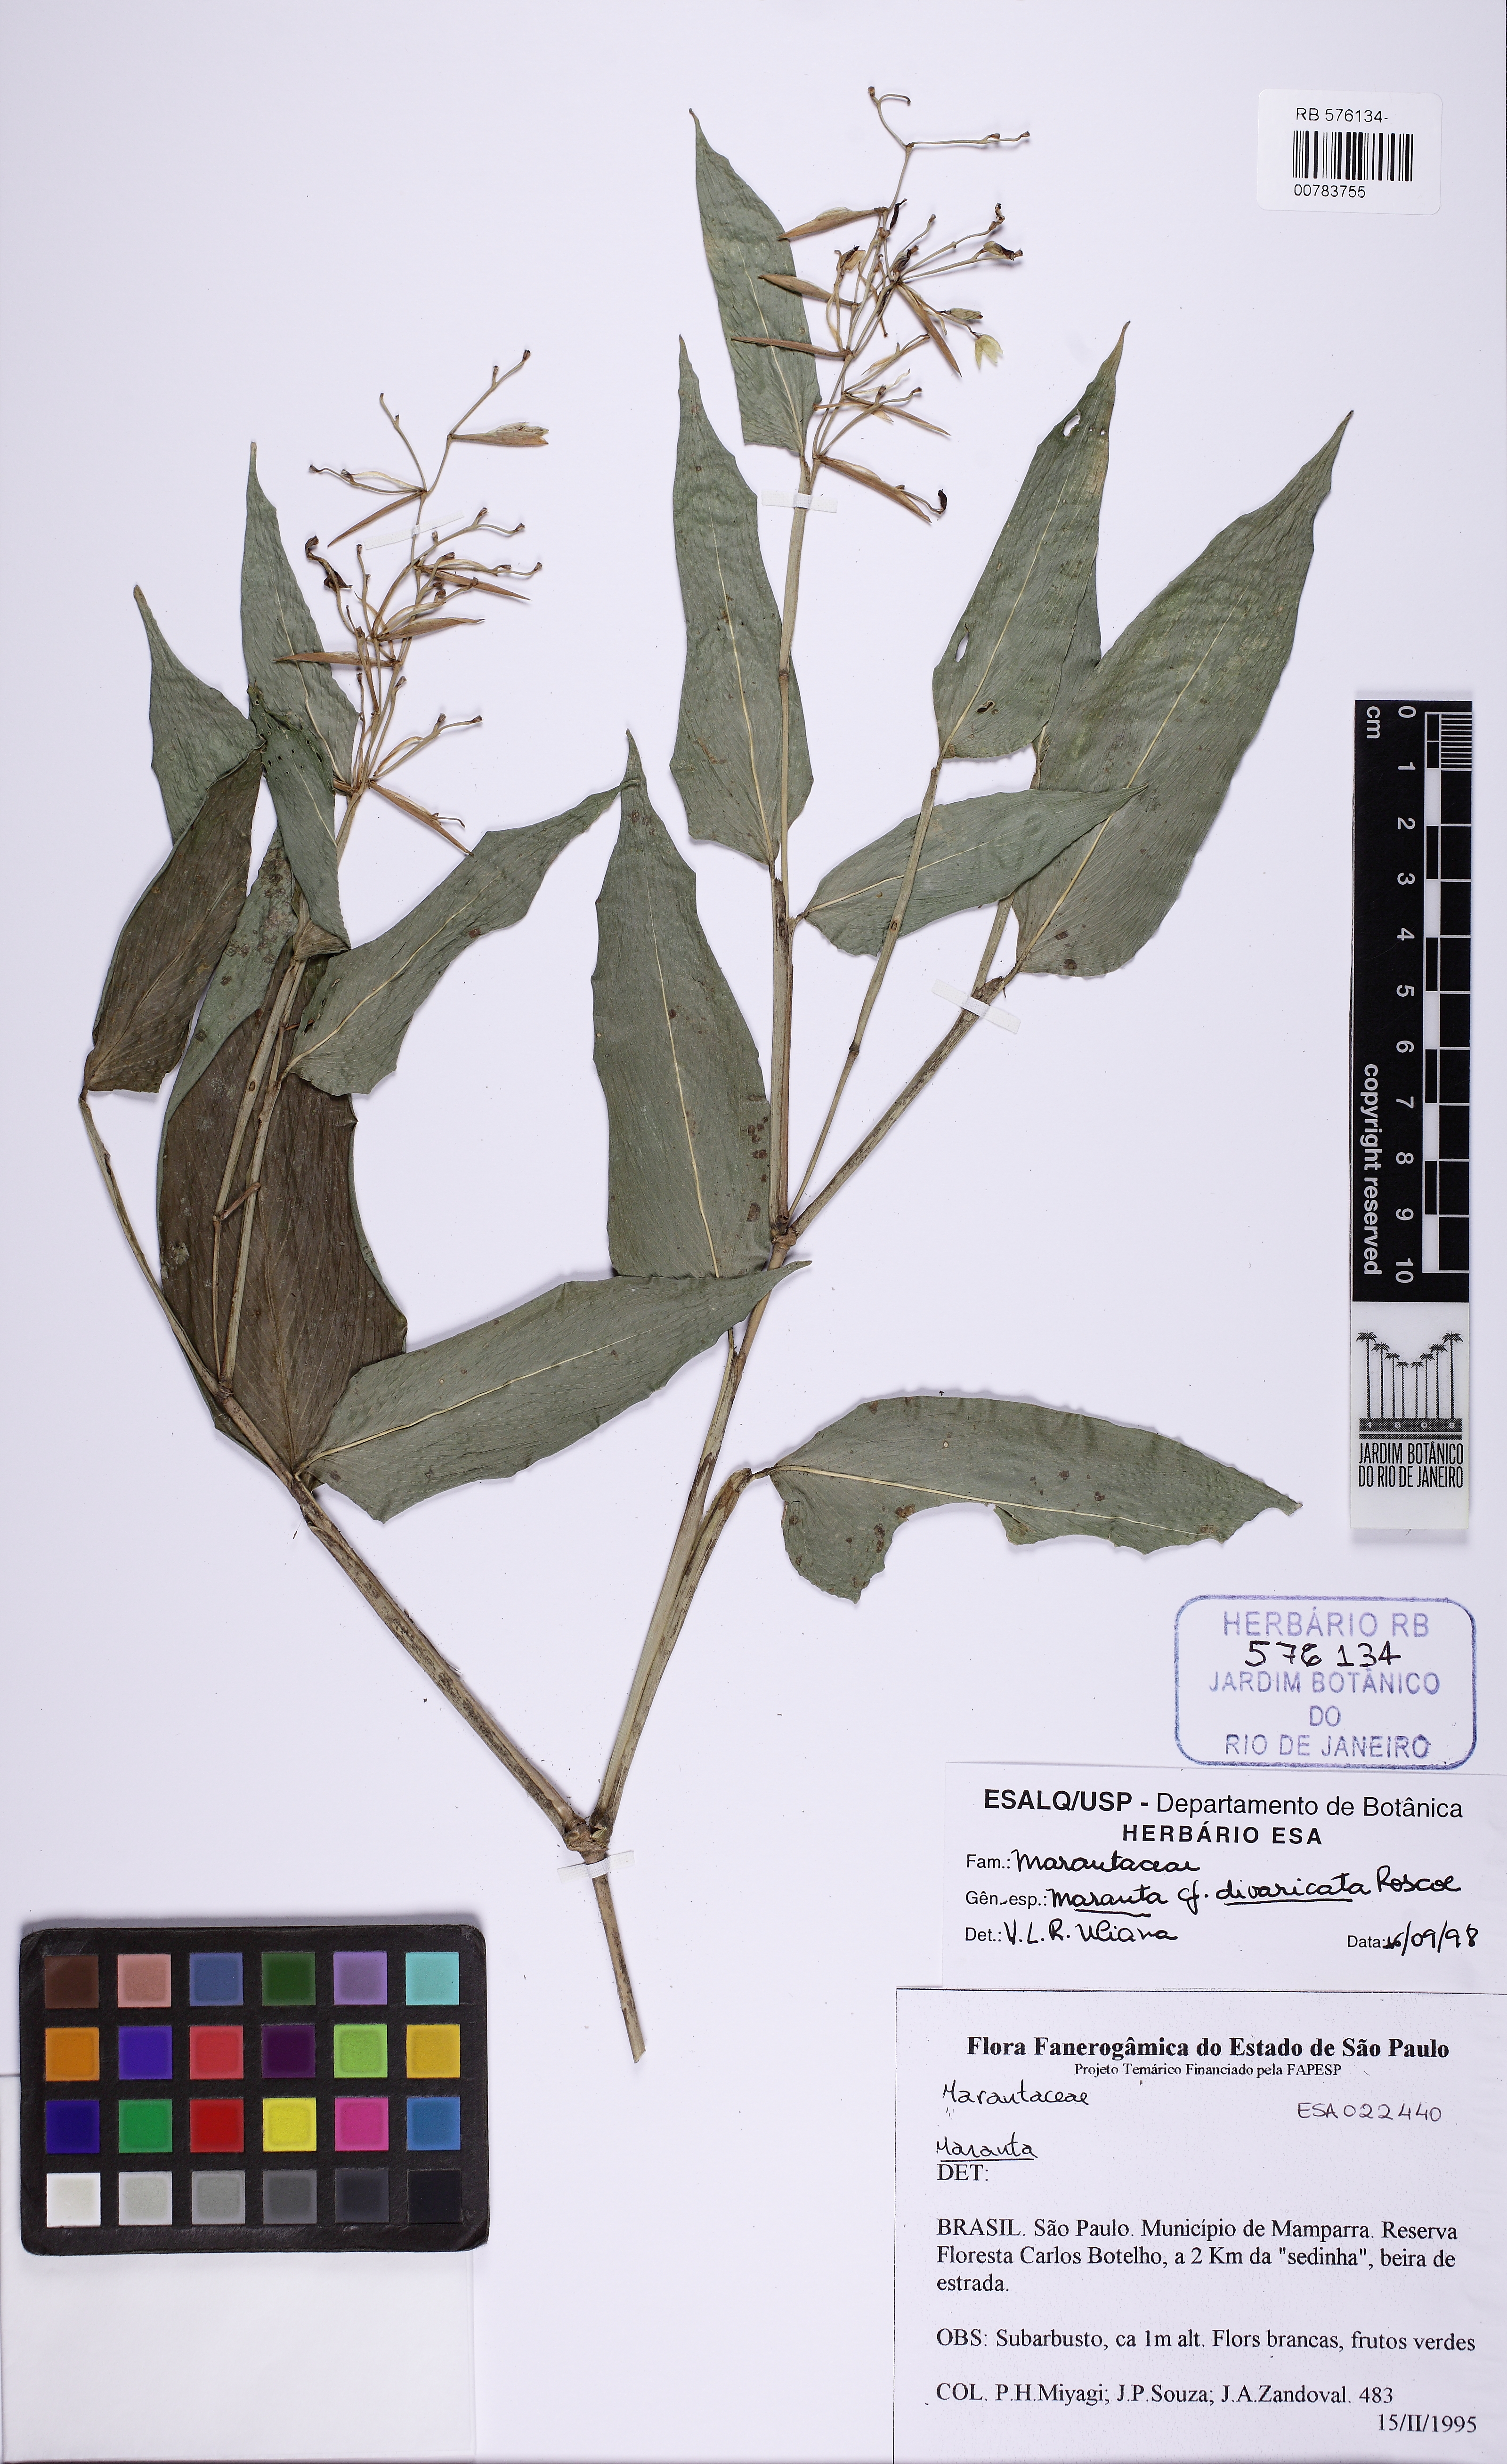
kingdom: Plantae
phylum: Tracheophyta
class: Liliopsida
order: Zingiberales
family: Marantaceae
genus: Stromanthe
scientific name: Stromanthe tonckat
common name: Stromanthe
